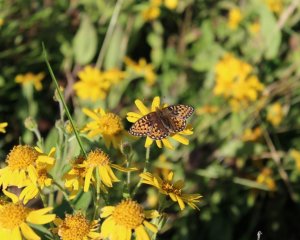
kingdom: Animalia
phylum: Arthropoda
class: Insecta
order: Lepidoptera
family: Nymphalidae
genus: Speyeria
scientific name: Speyeria mormonia
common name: Mormon Fritillary
